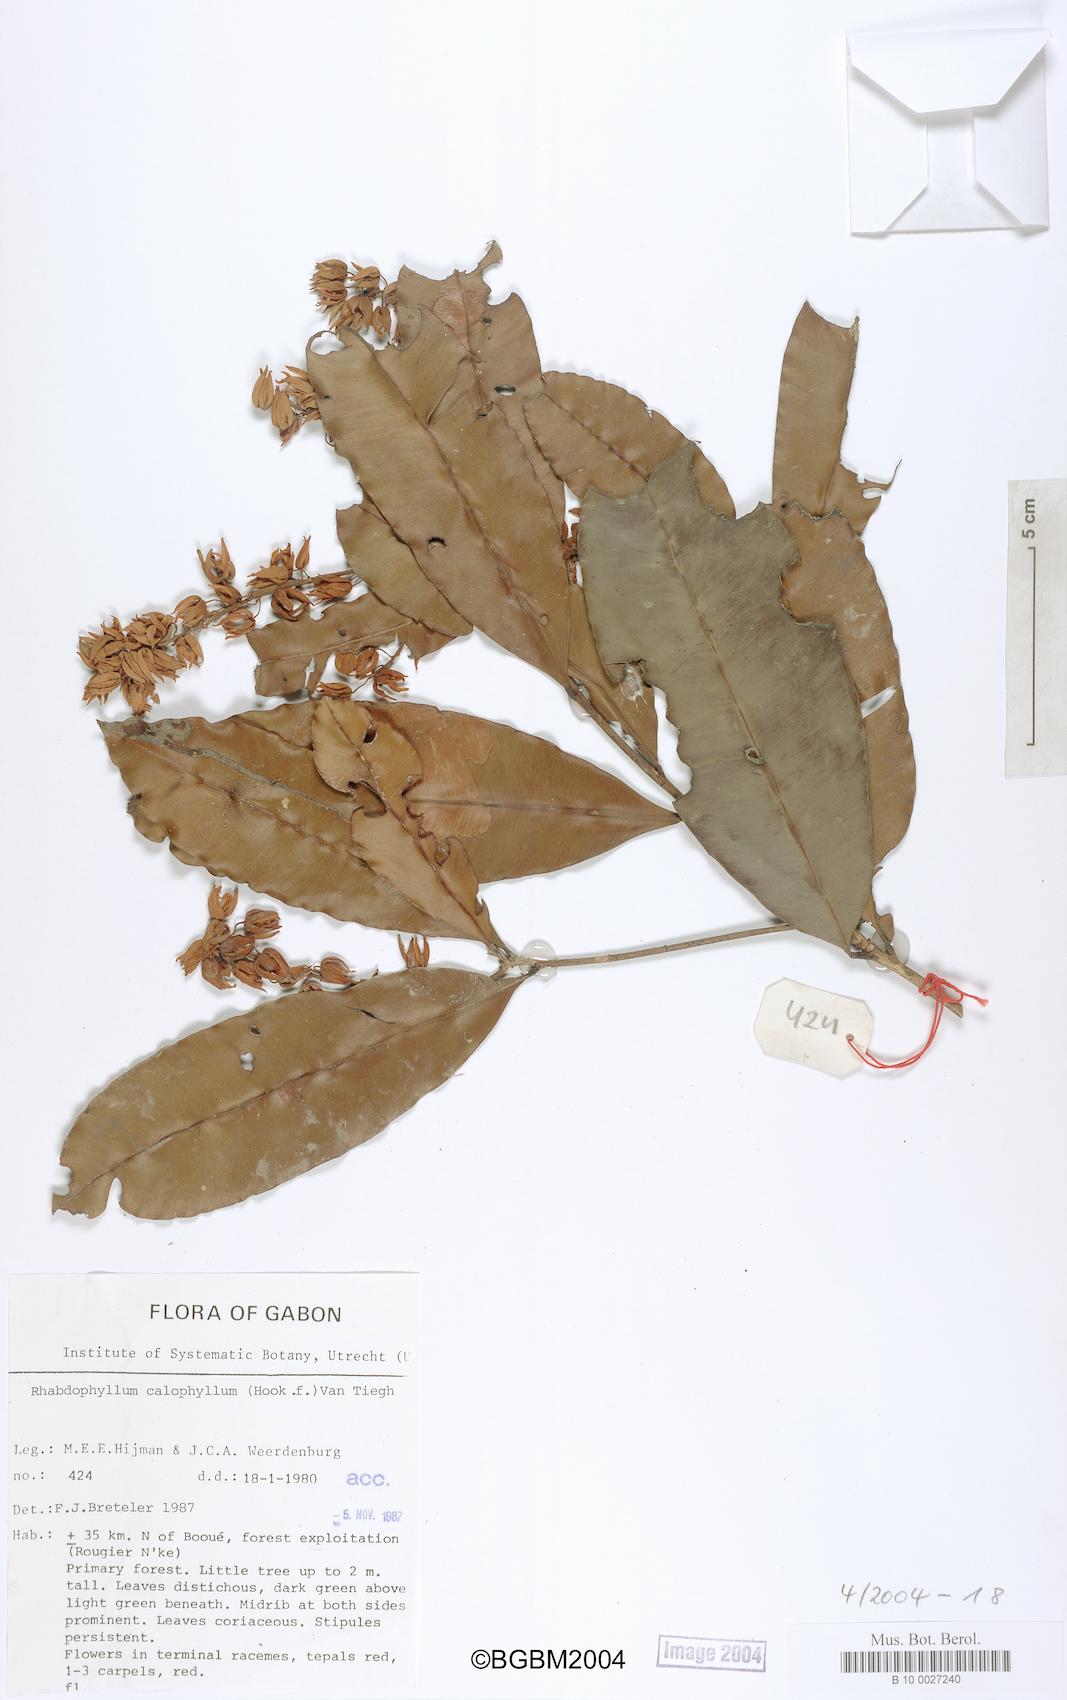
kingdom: Plantae
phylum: Tracheophyta
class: Magnoliopsida
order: Malpighiales
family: Ochnaceae
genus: Rhabdophyllum
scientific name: Rhabdophyllum calophyllum
